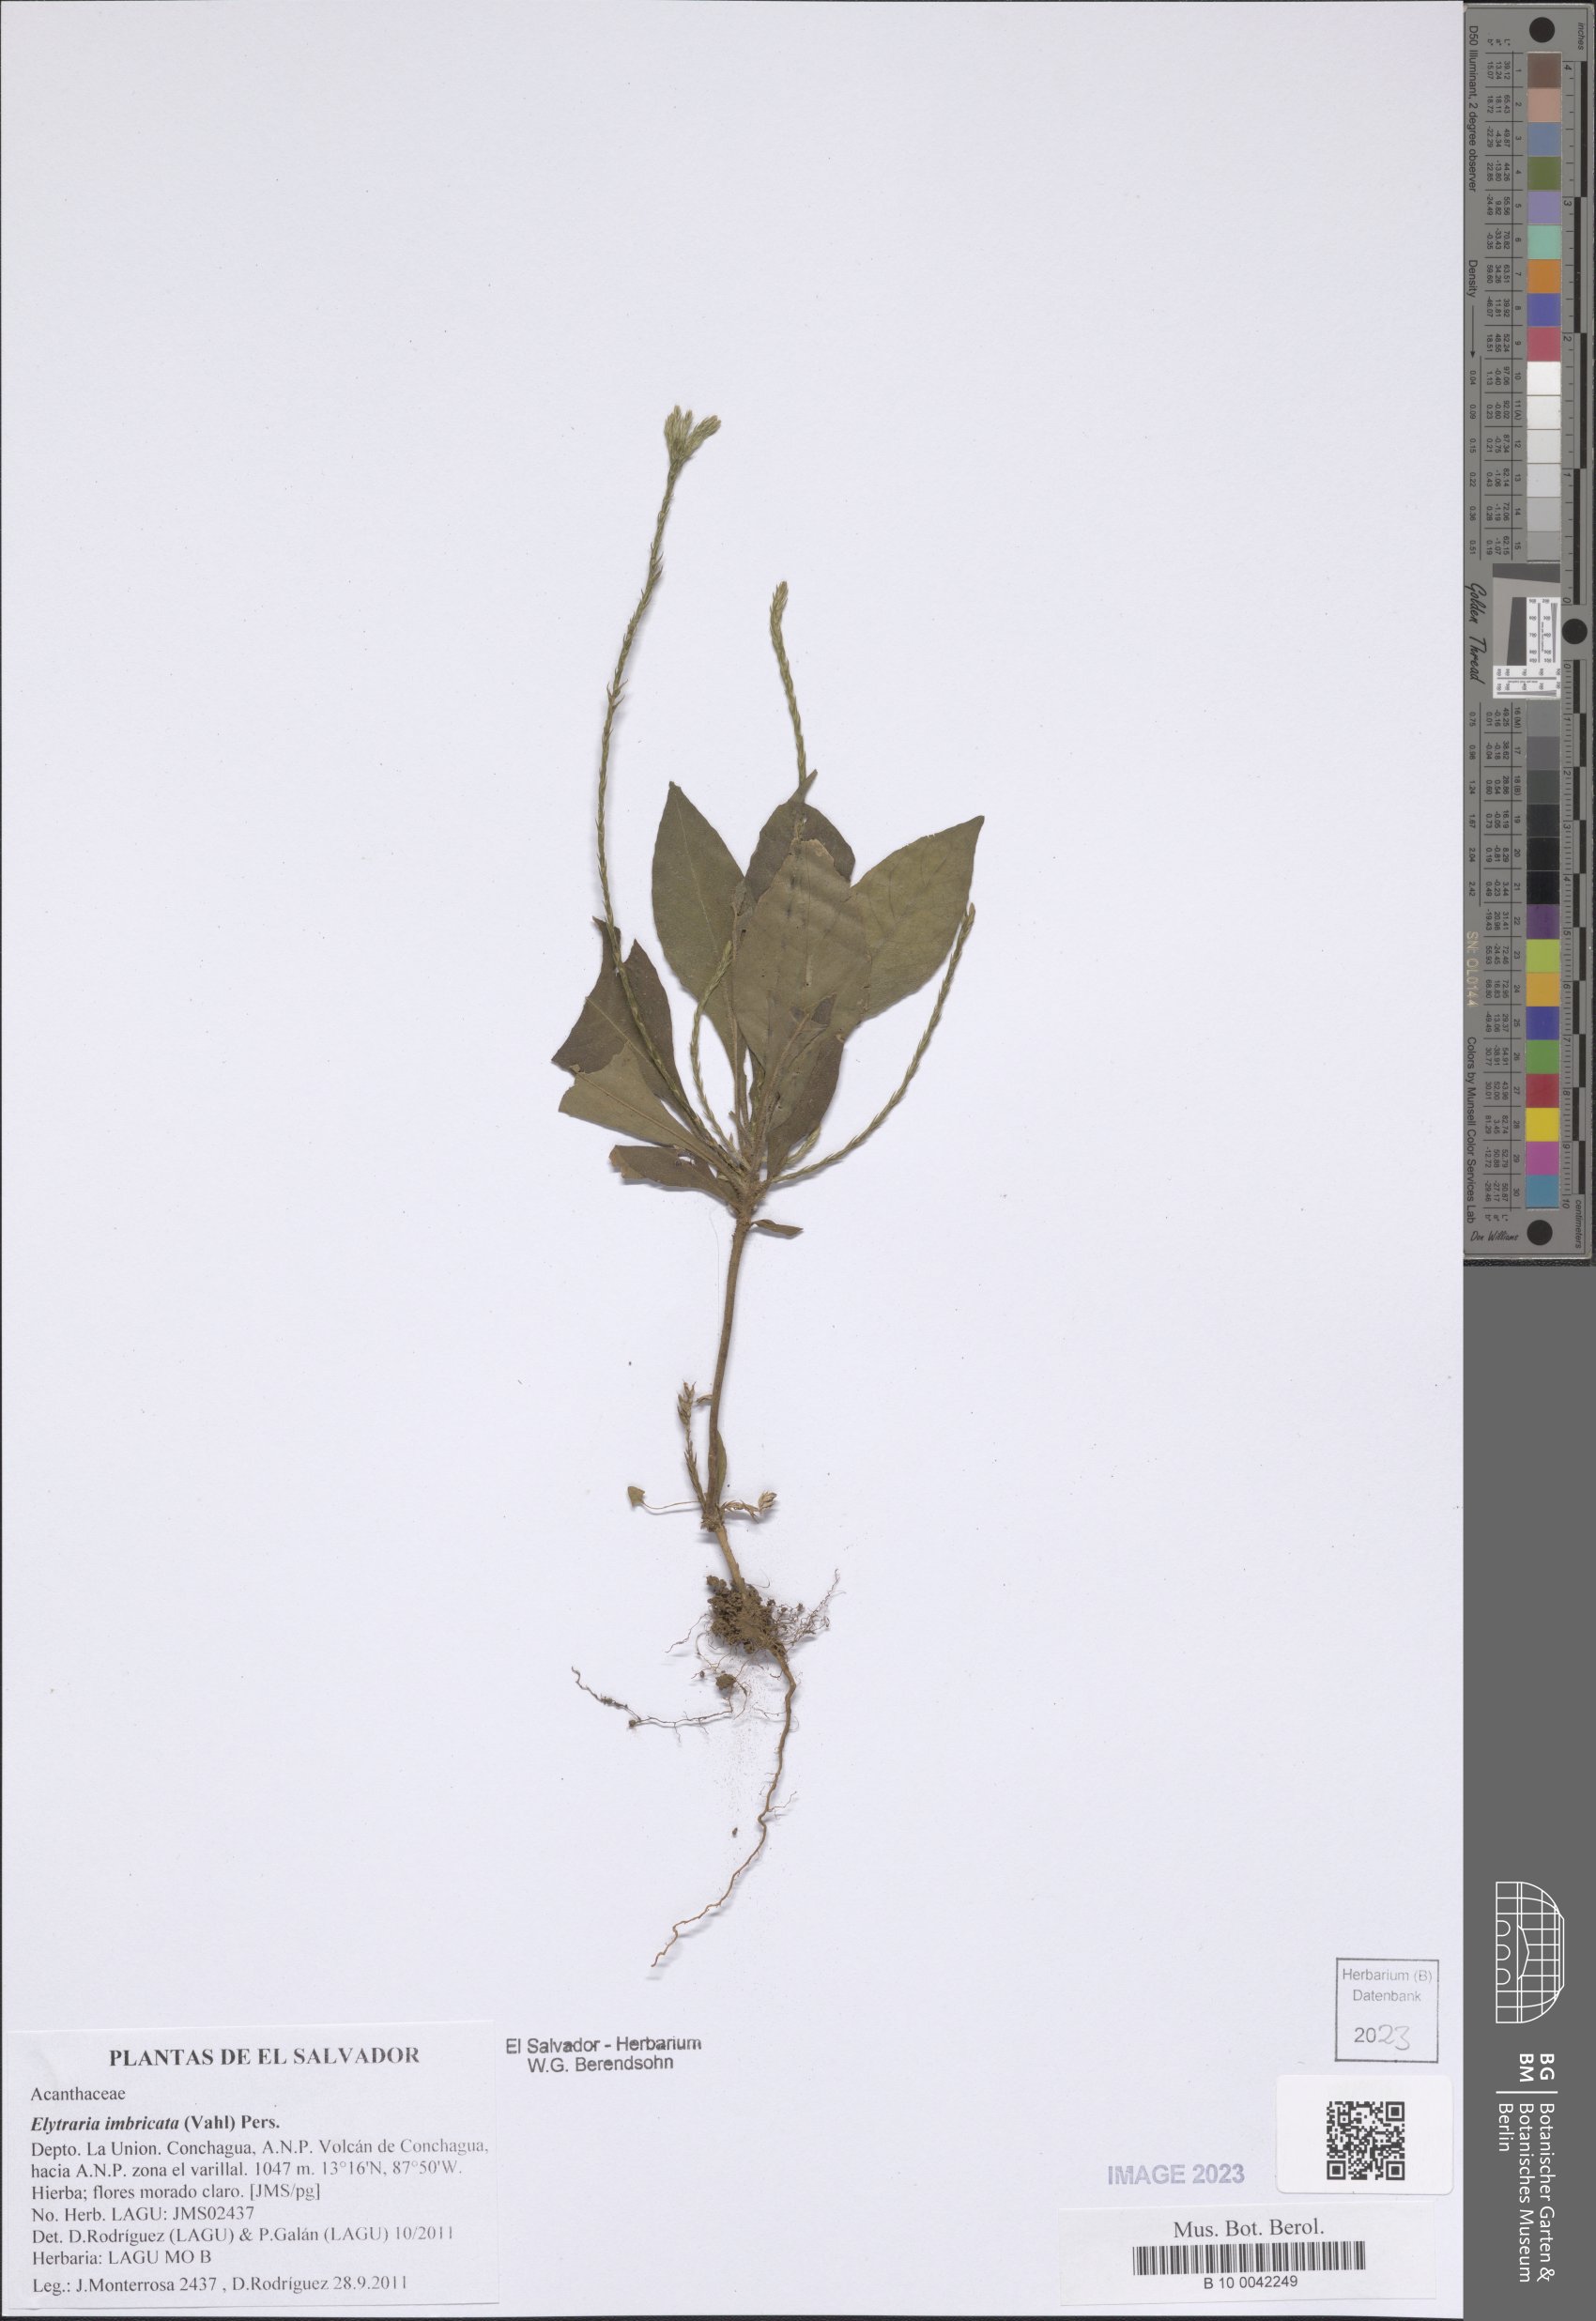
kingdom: Plantae
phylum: Tracheophyta
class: Magnoliopsida
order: Lamiales
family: Acanthaceae
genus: Elytraria
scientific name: Elytraria imbricata
